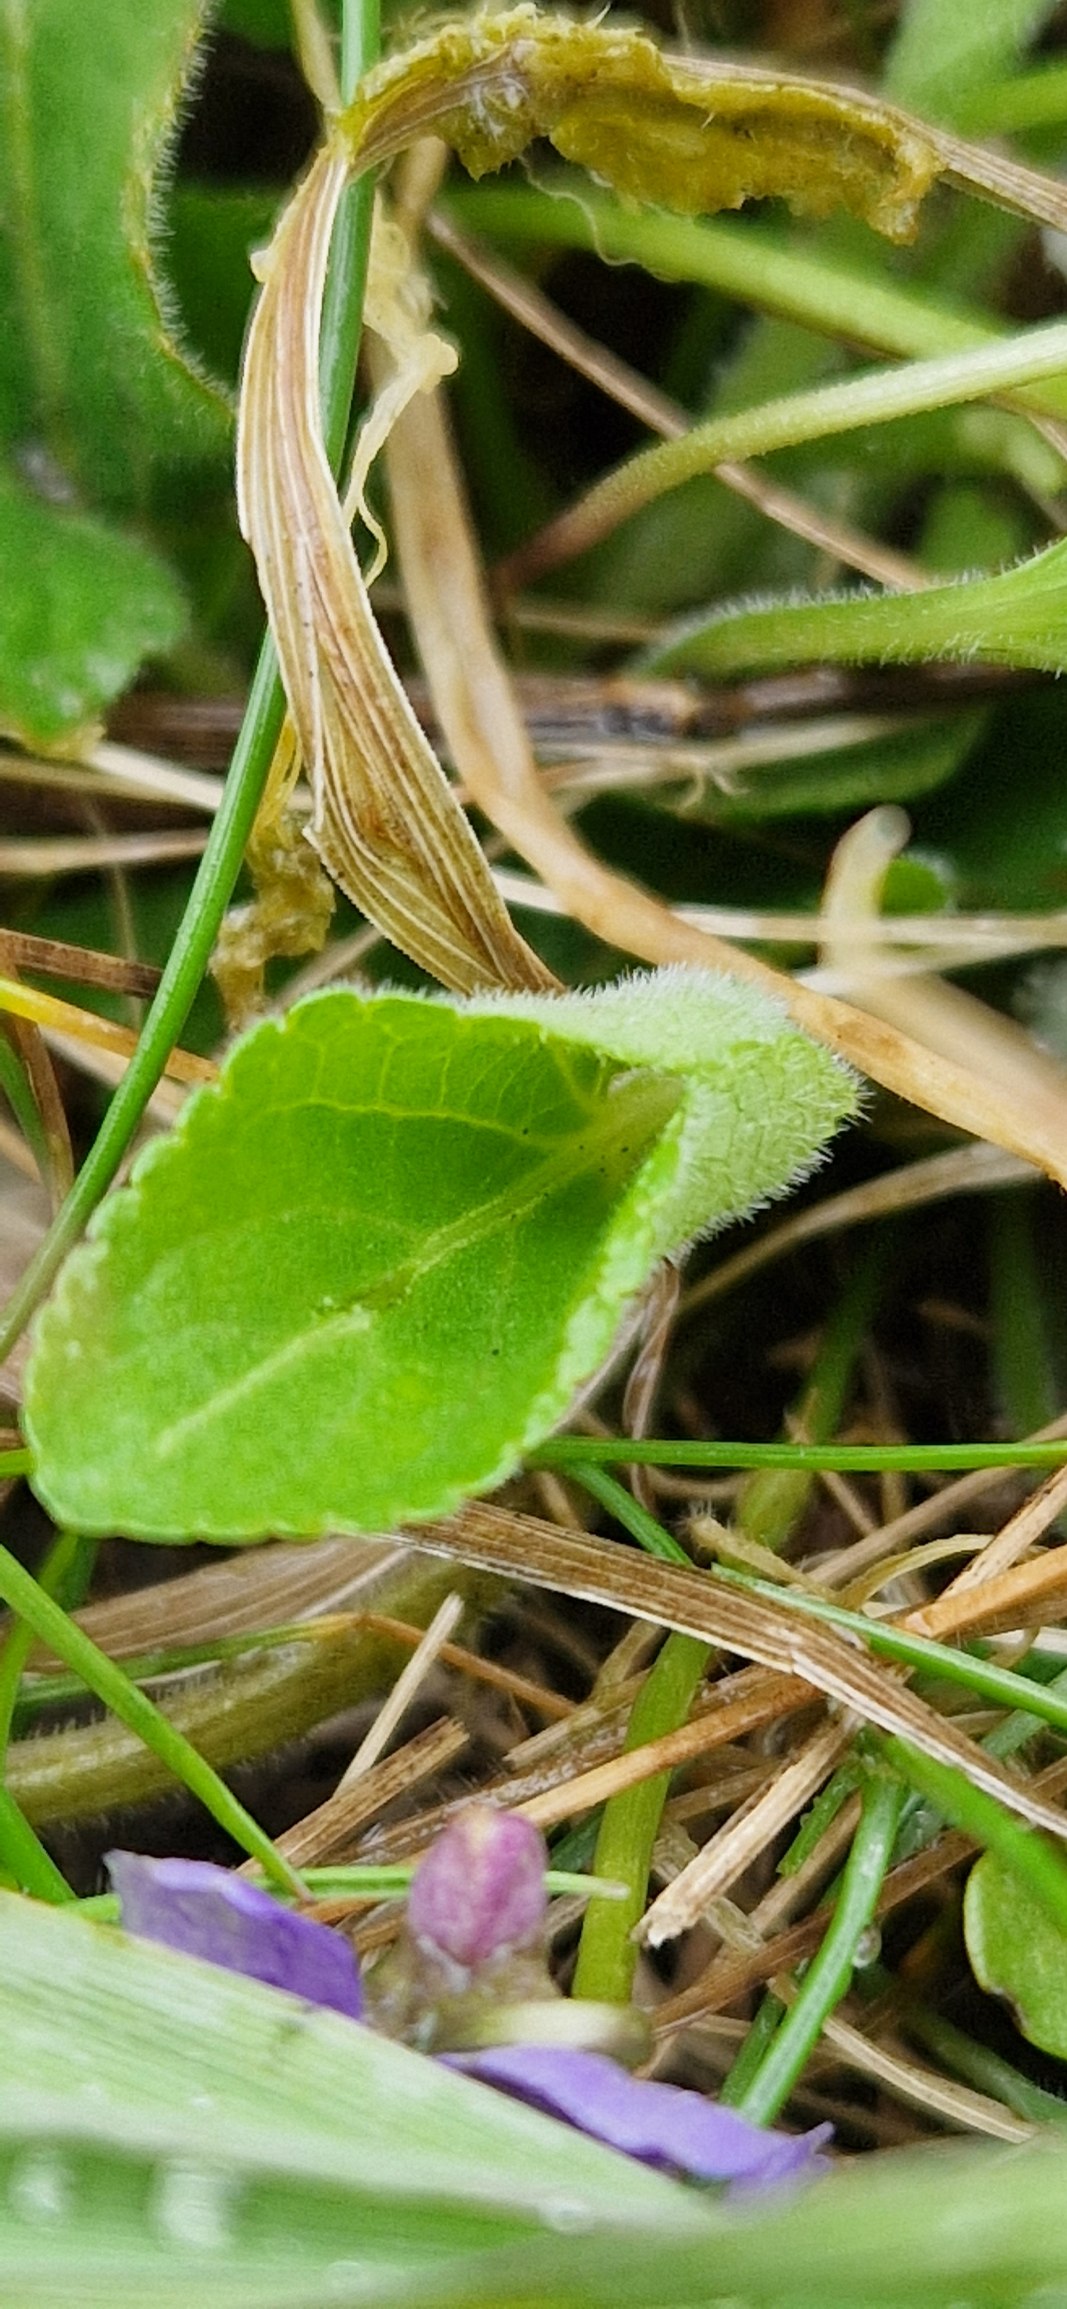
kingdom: Plantae
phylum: Tracheophyta
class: Magnoliopsida
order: Malpighiales
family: Violaceae
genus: Viola
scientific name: Viola hirta
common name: Håret viol
